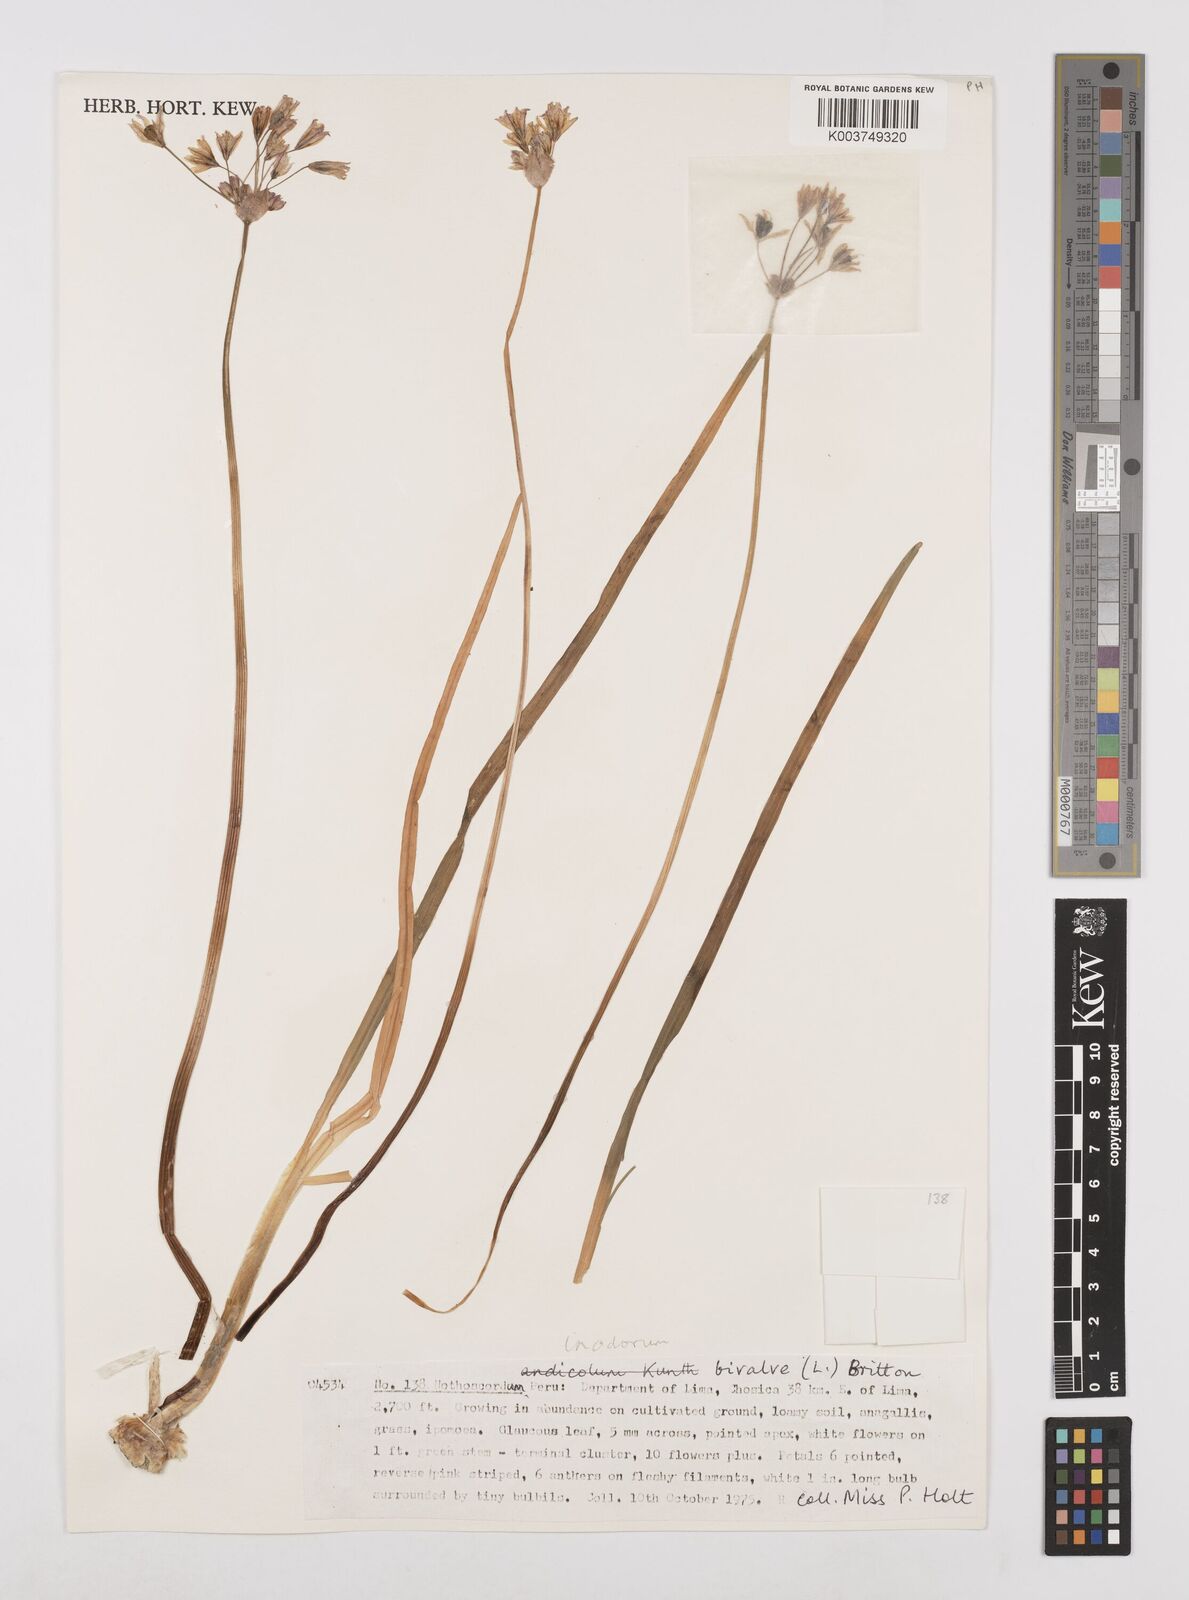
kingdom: Plantae
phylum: Tracheophyta
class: Liliopsida
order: Asparagales
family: Amaryllidaceae
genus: Allium
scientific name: Allium neapolitanum
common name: Neapolitan garlic
